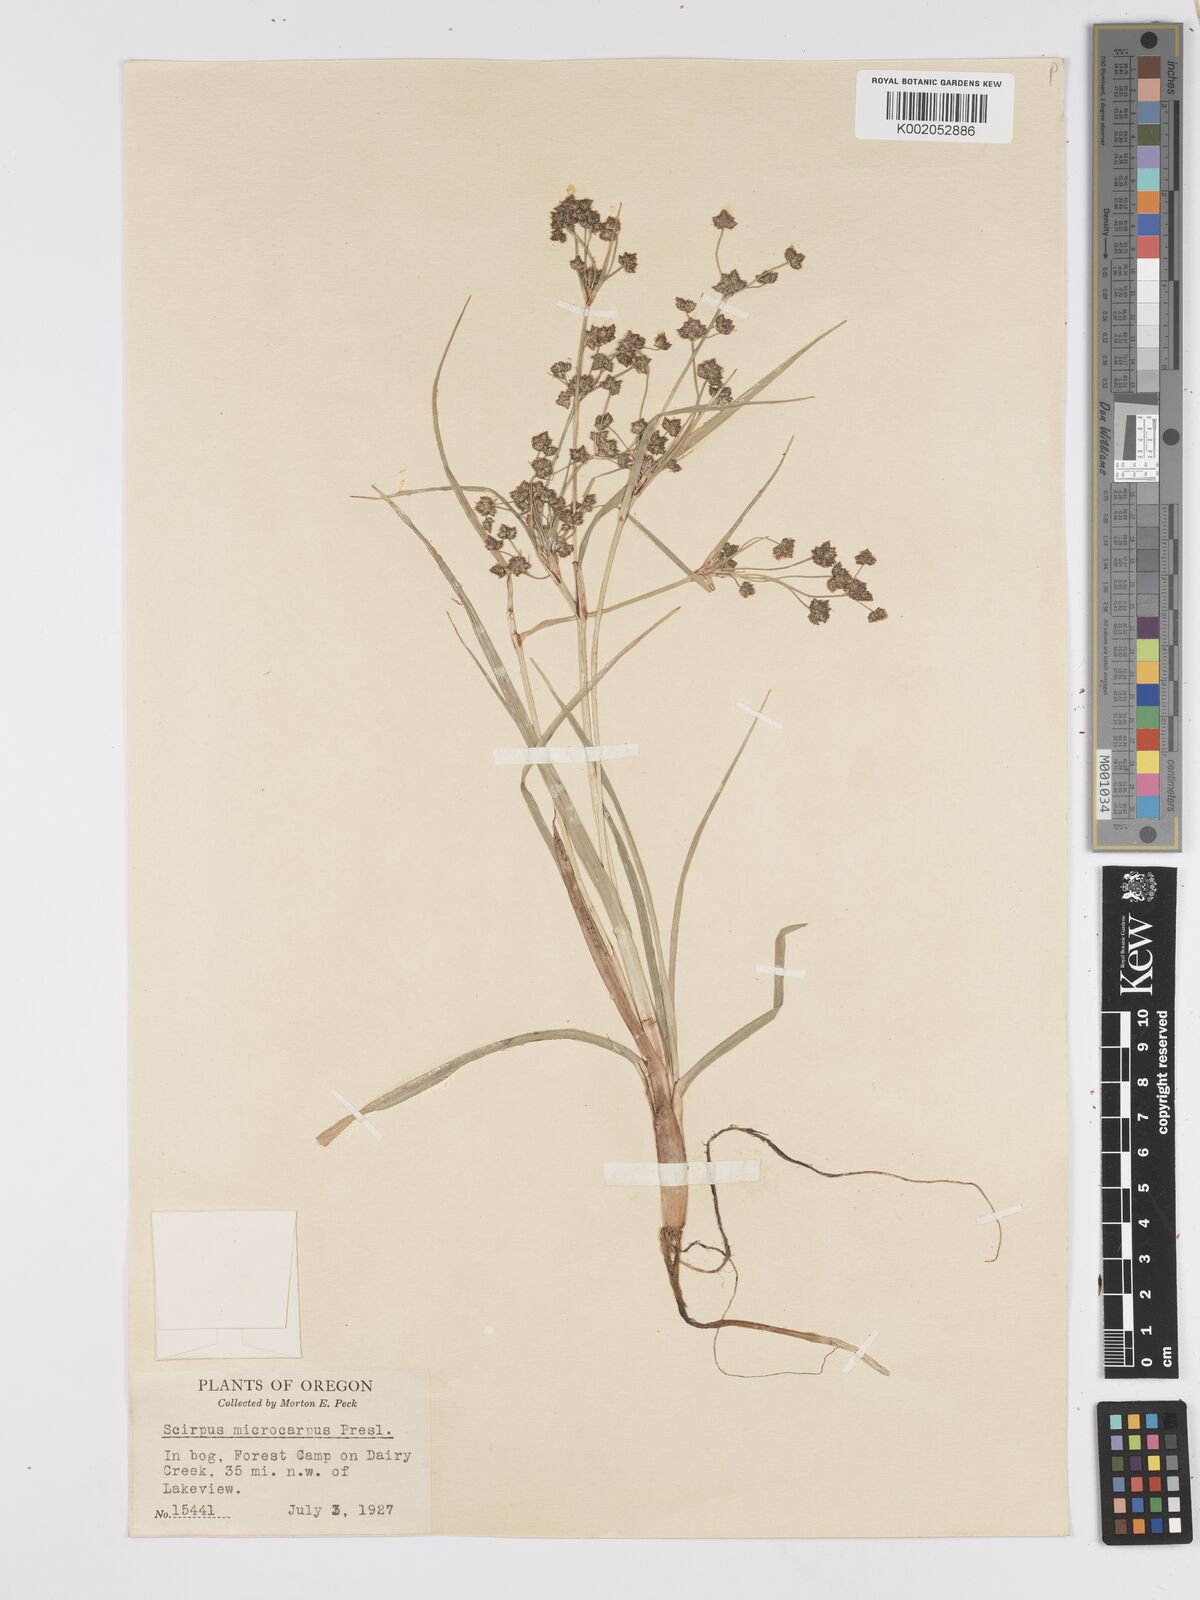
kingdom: Plantae
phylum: Tracheophyta
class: Liliopsida
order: Poales
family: Cyperaceae
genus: Scirpus
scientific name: Scirpus microcarpus
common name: Panicled bulrush
